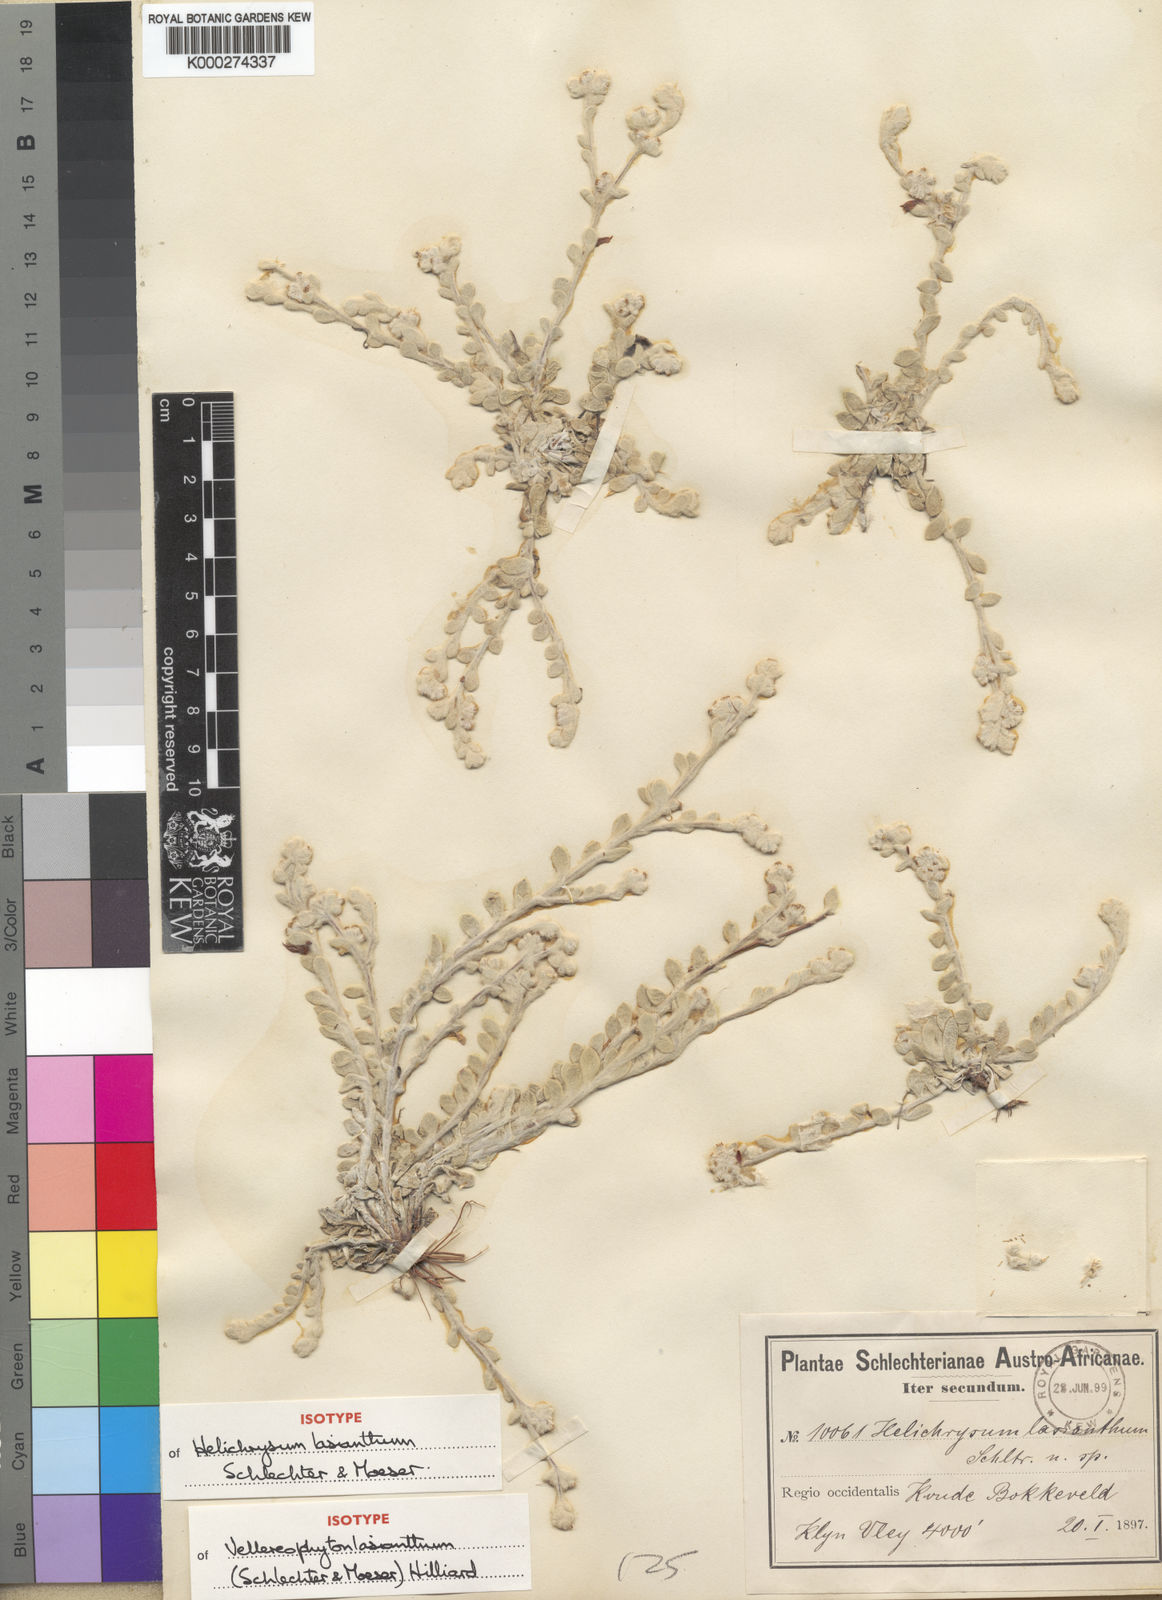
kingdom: Plantae
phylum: Tracheophyta
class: Magnoliopsida
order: Asterales
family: Asteraceae
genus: Vellereophyton
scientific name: Vellereophyton lasianthum
